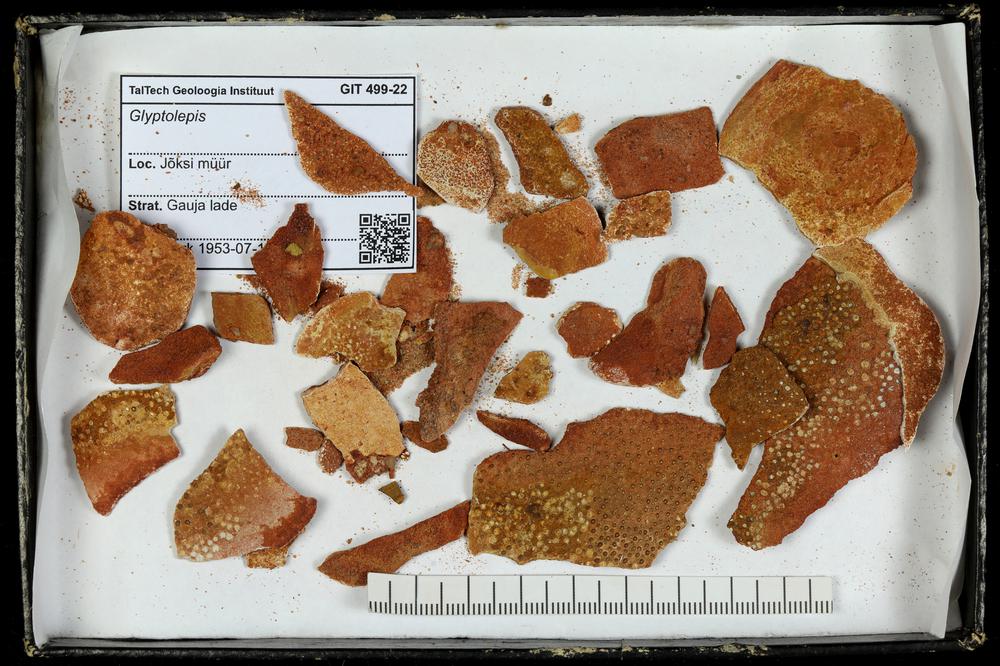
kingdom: Animalia
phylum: Chordata
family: Holoptychiidae
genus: Glyptolepis
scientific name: Glyptolepis
